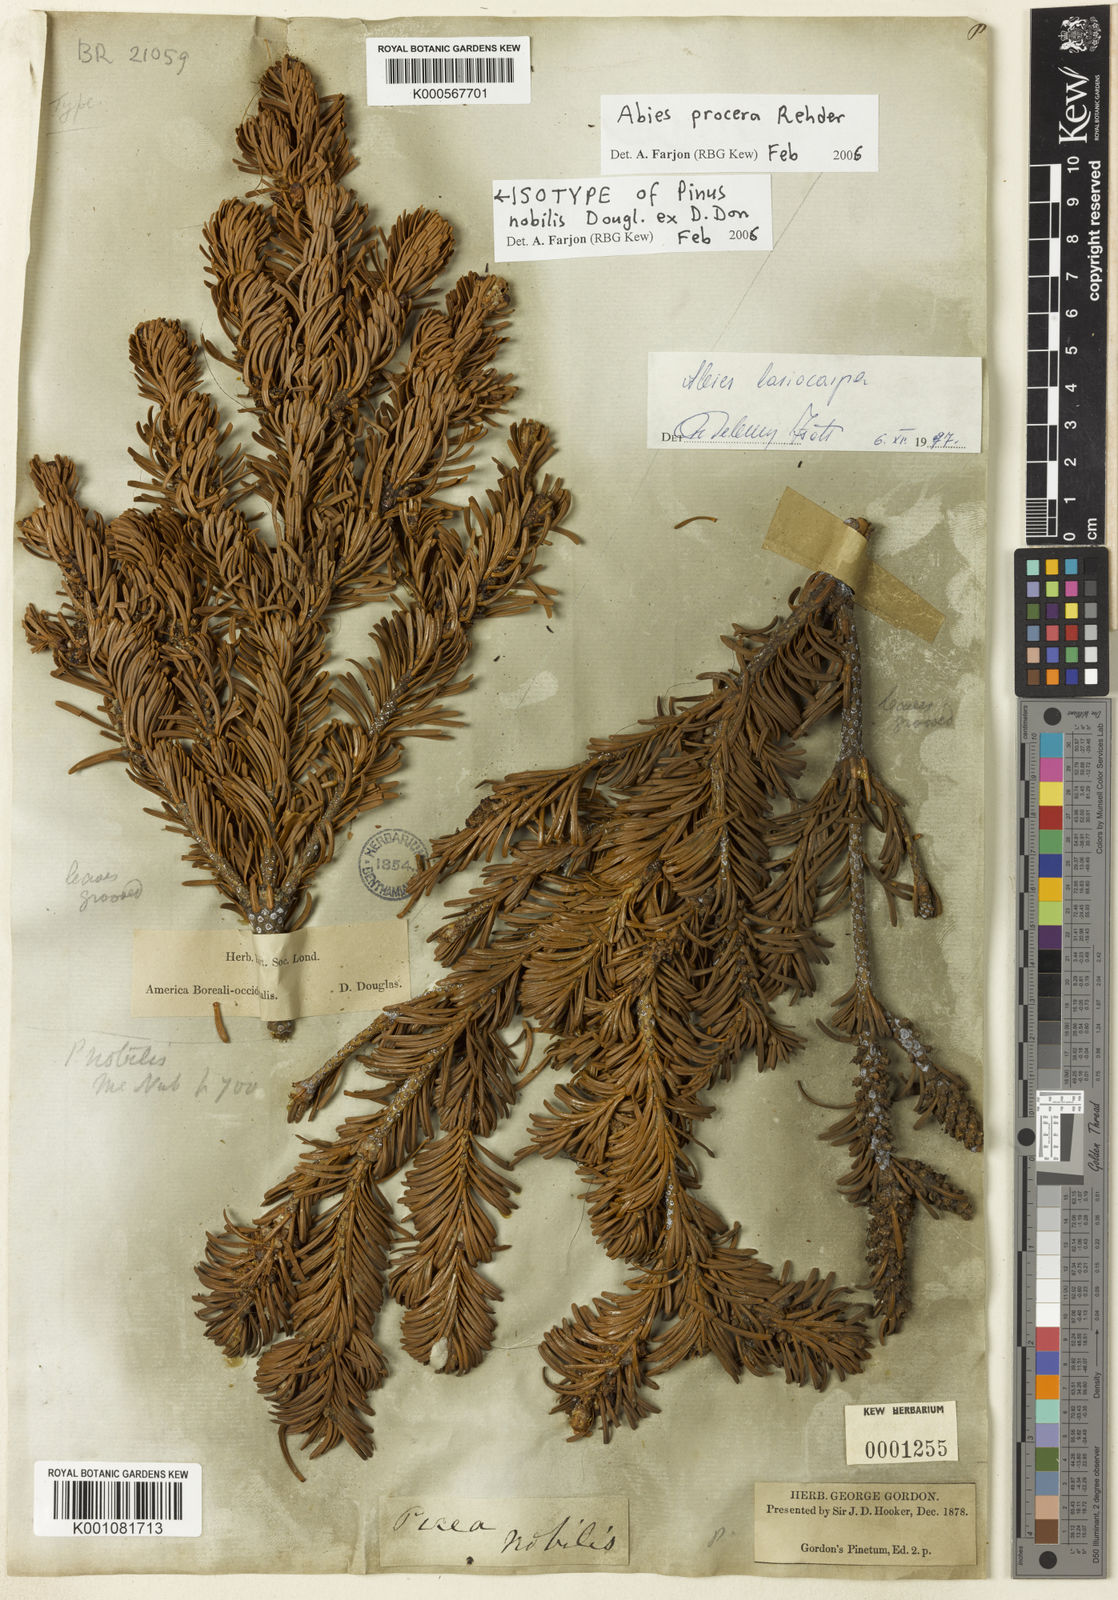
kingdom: Plantae
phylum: Tracheophyta
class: Pinopsida
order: Pinales
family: Pinaceae
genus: Abies
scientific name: Abies procera
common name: Noble fir
